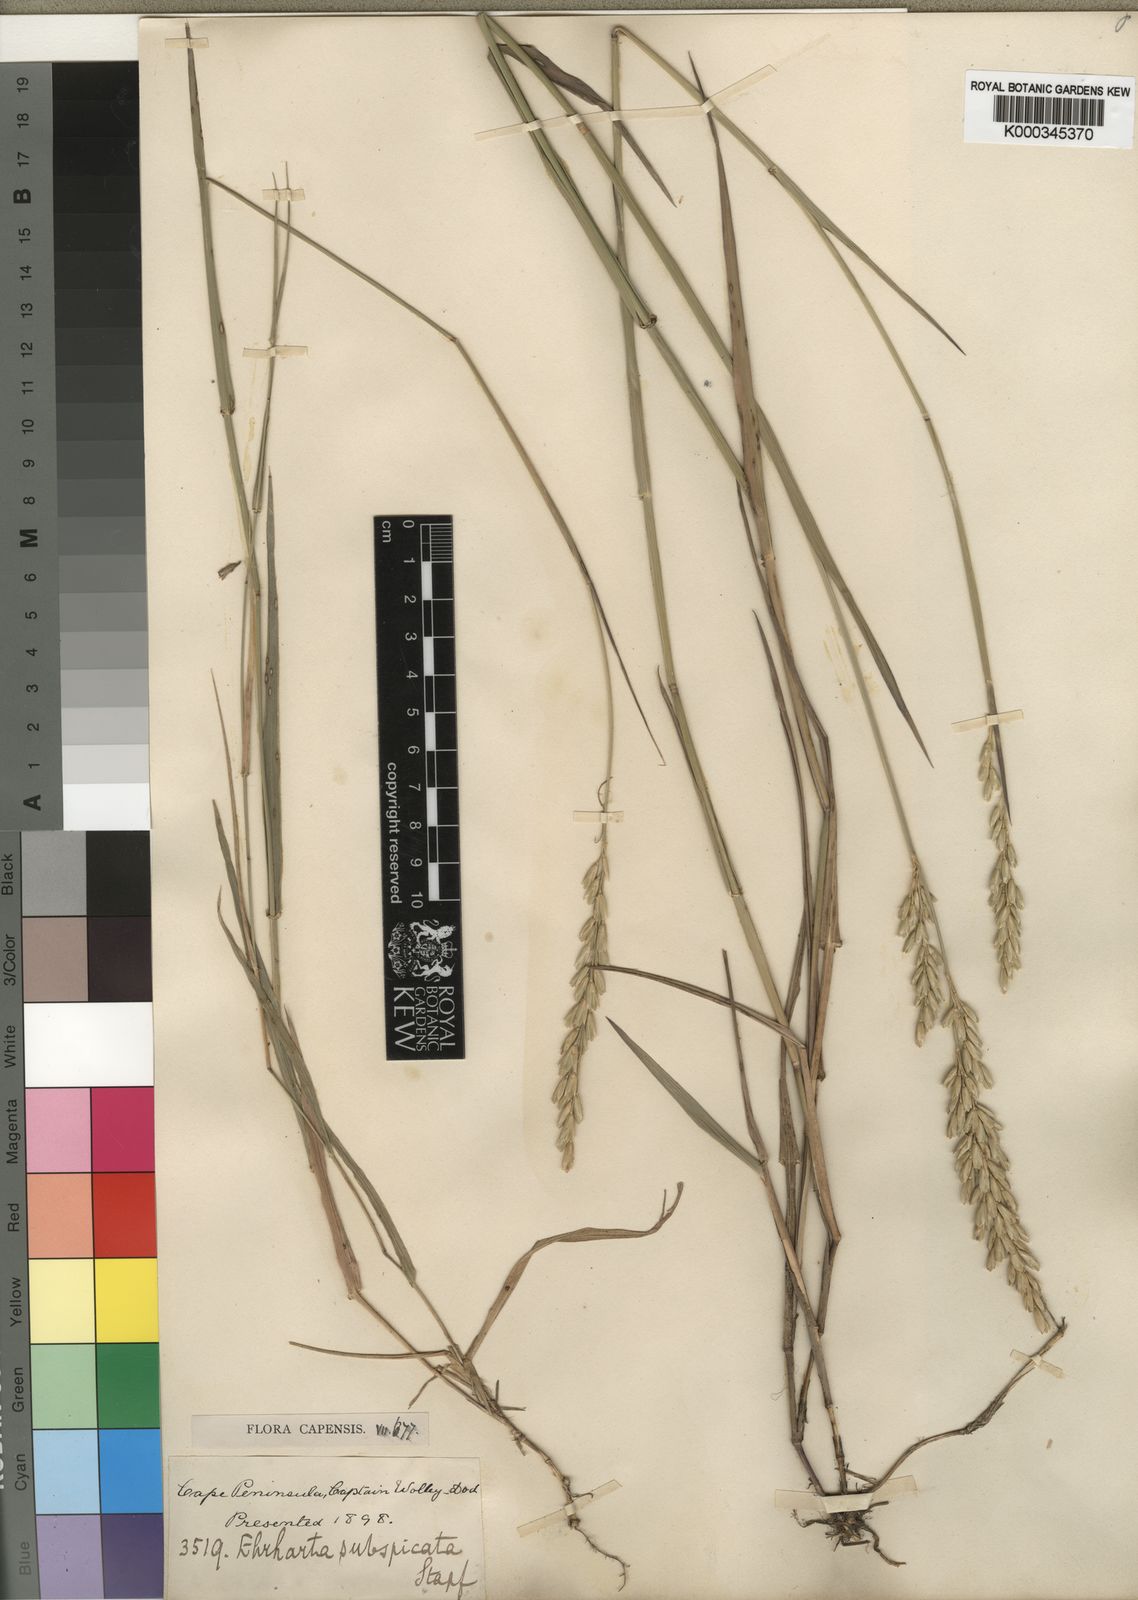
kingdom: Plantae
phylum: Tracheophyta
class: Liliopsida
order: Poales
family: Poaceae
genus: Ehrharta
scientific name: Ehrharta rehmannii
